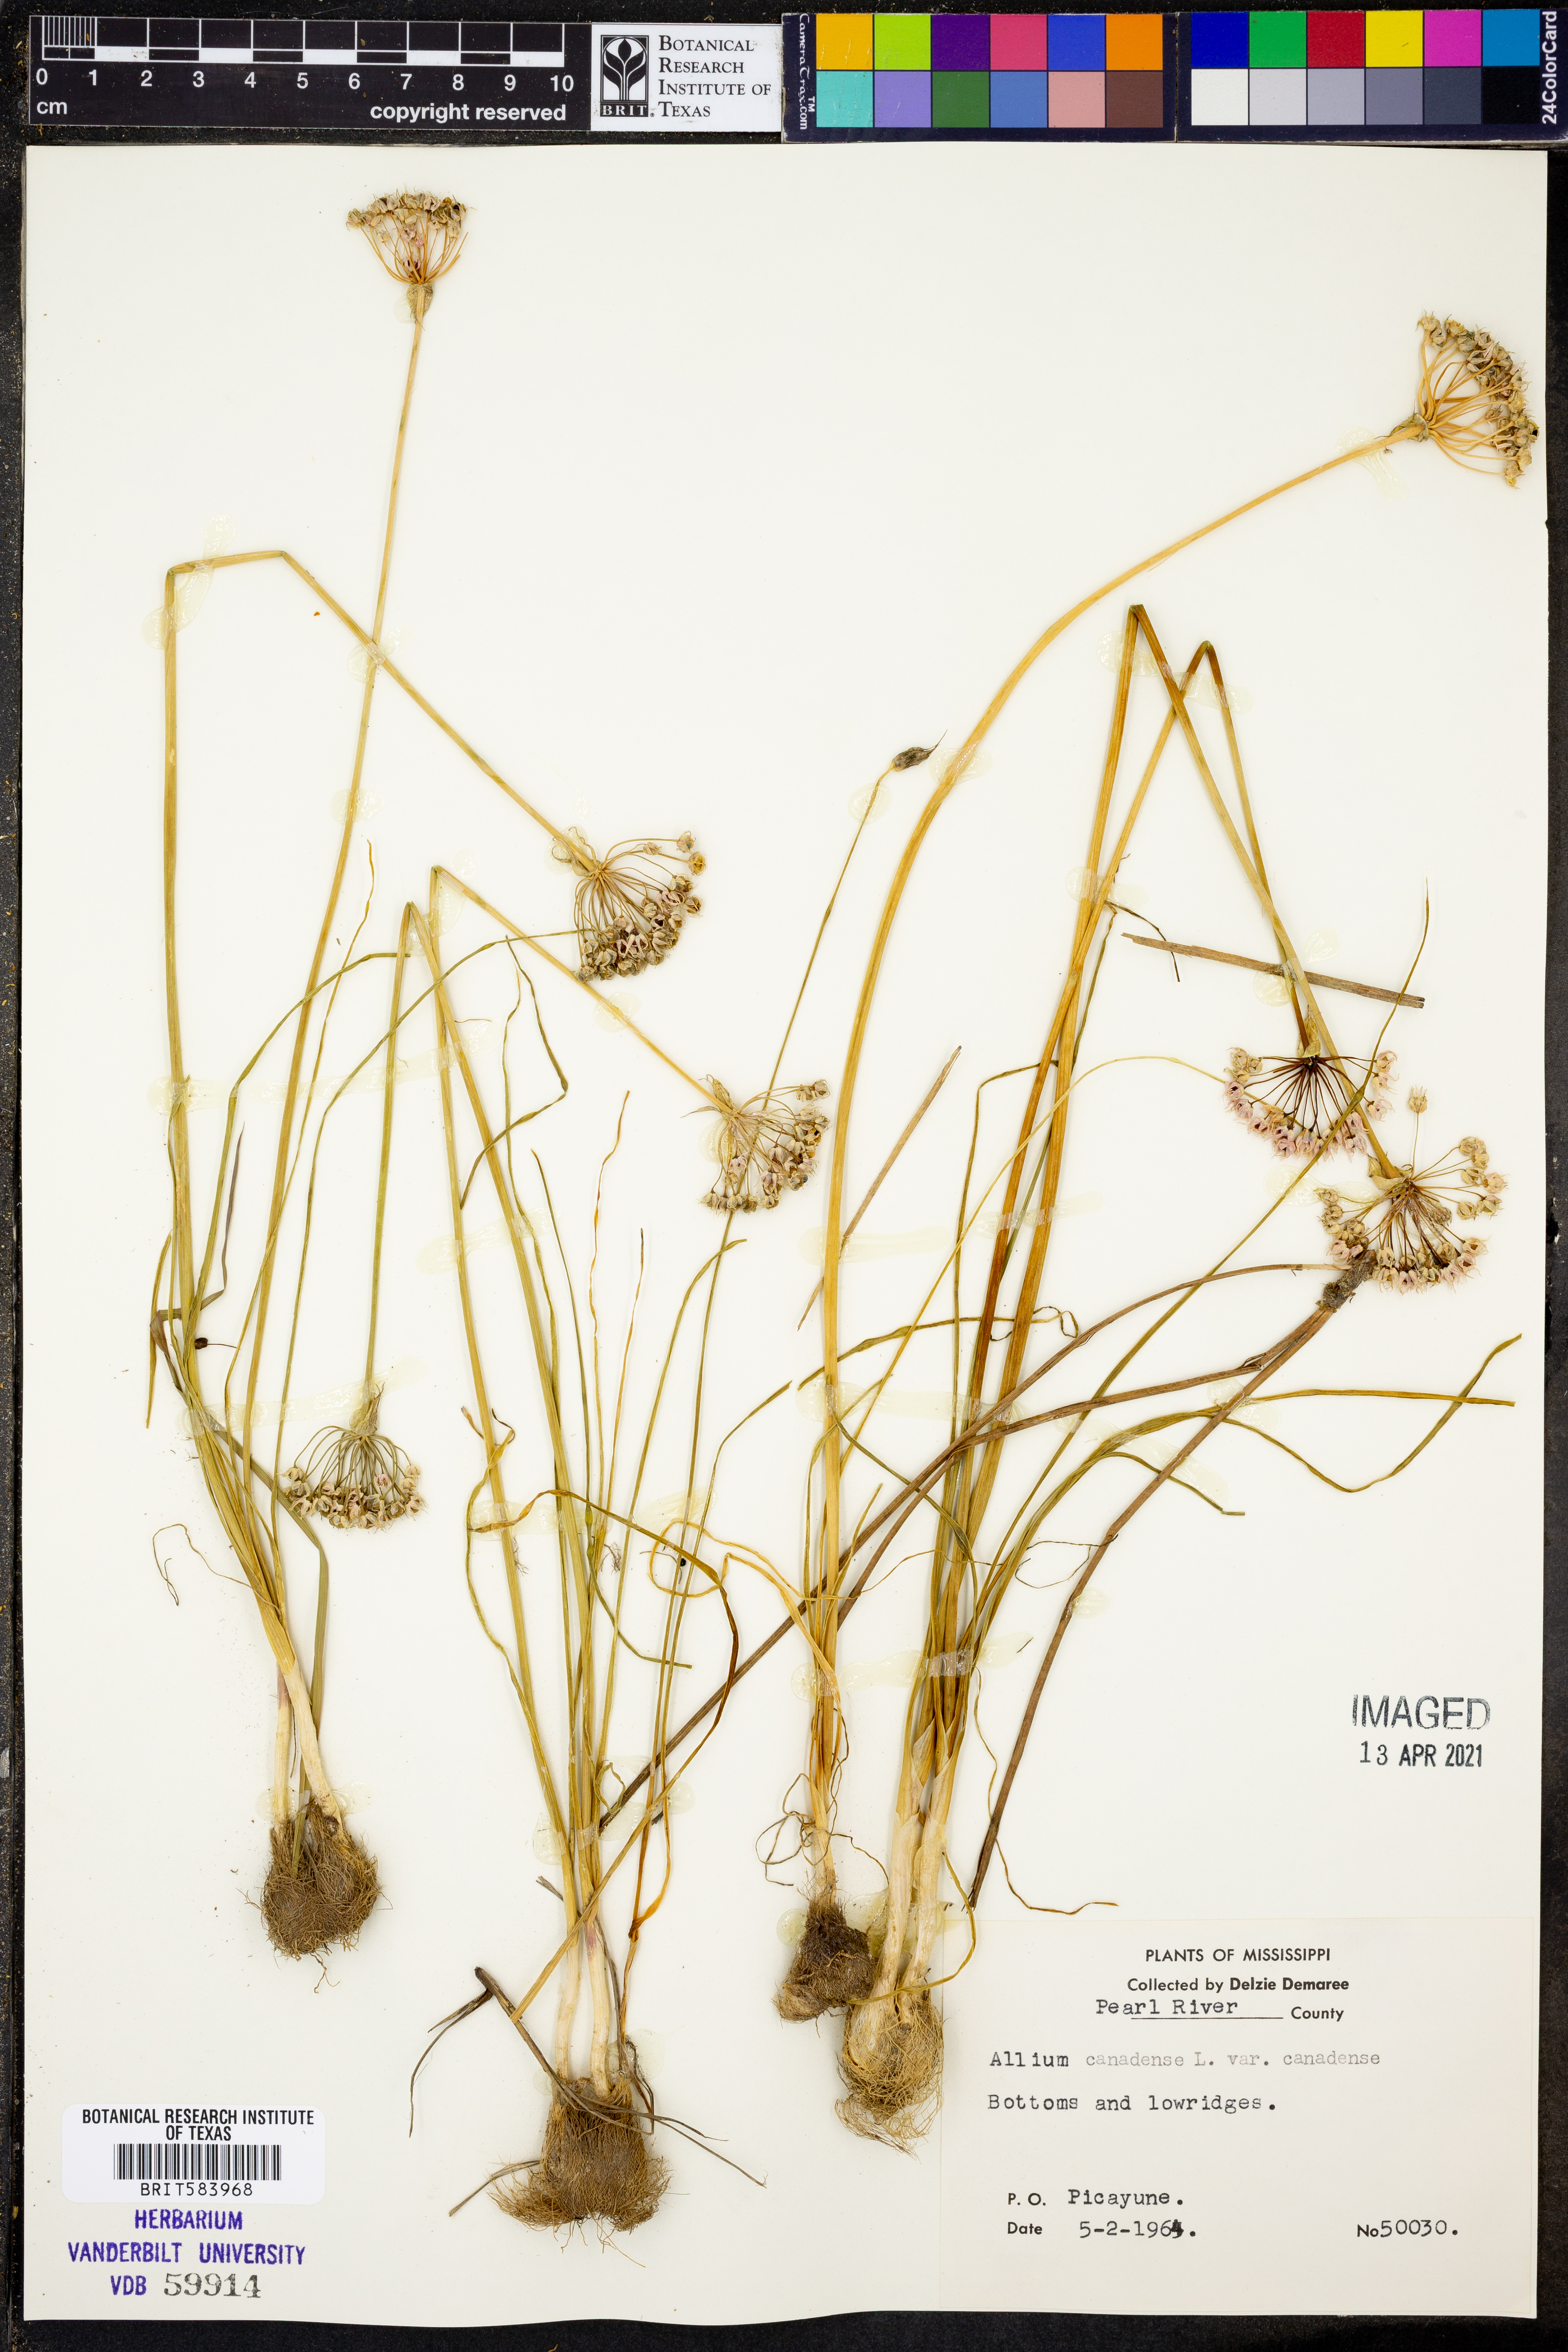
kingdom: Plantae
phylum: Tracheophyta
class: Liliopsida
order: Asparagales
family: Amaryllidaceae
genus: Allium
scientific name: Allium canadense
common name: Meadow garlic
